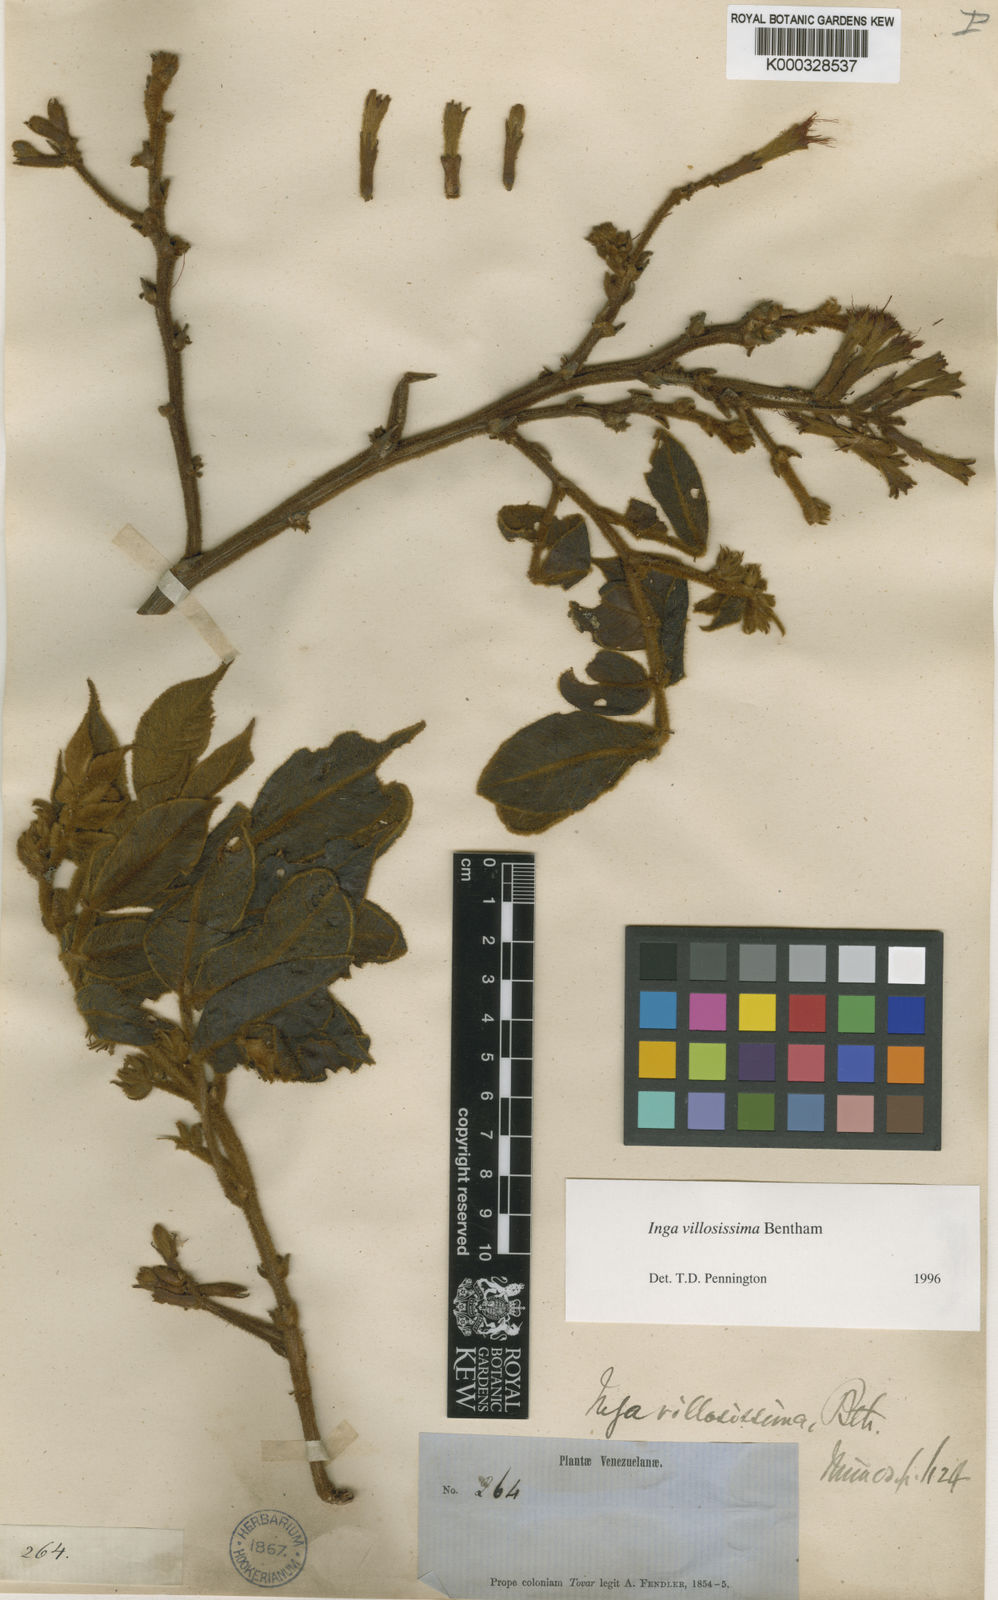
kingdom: Plantae
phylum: Tracheophyta
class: Magnoliopsida
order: Fabales
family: Fabaceae
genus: Inga
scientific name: Inga villosissima
